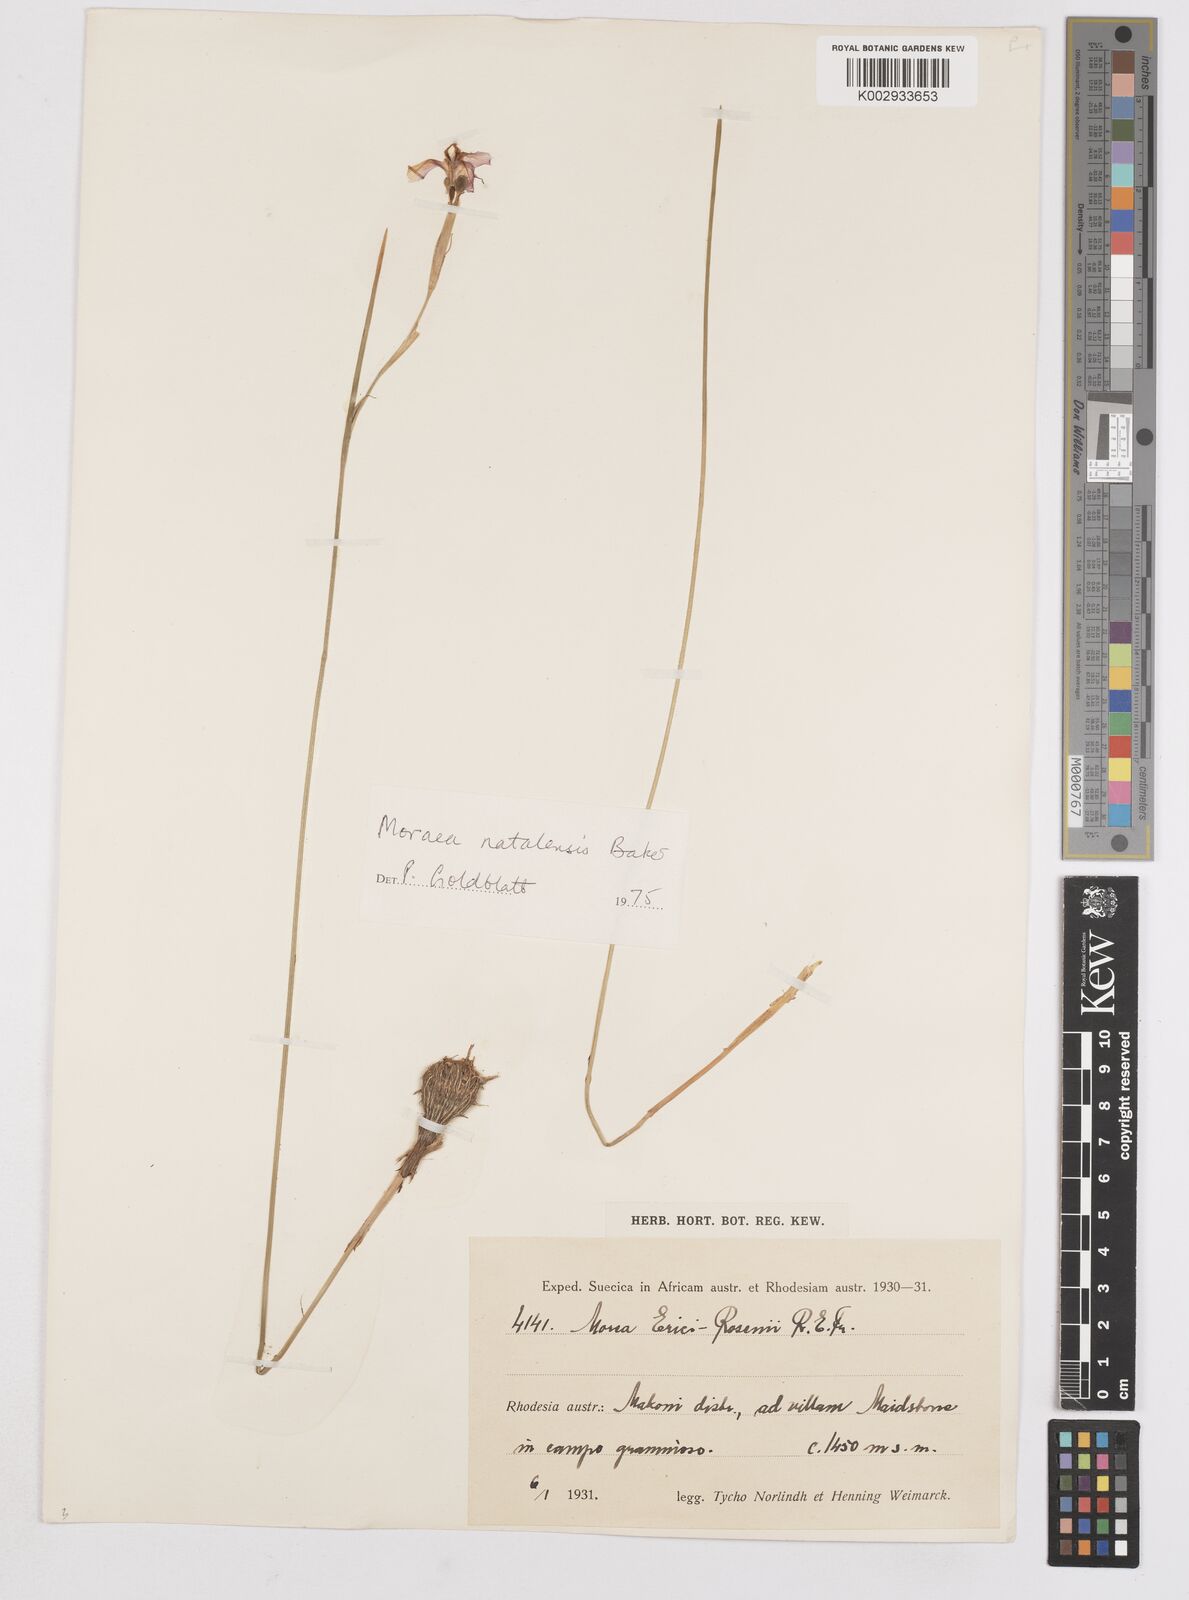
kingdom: Plantae
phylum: Tracheophyta
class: Liliopsida
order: Asparagales
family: Iridaceae
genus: Moraea
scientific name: Moraea natalensis
